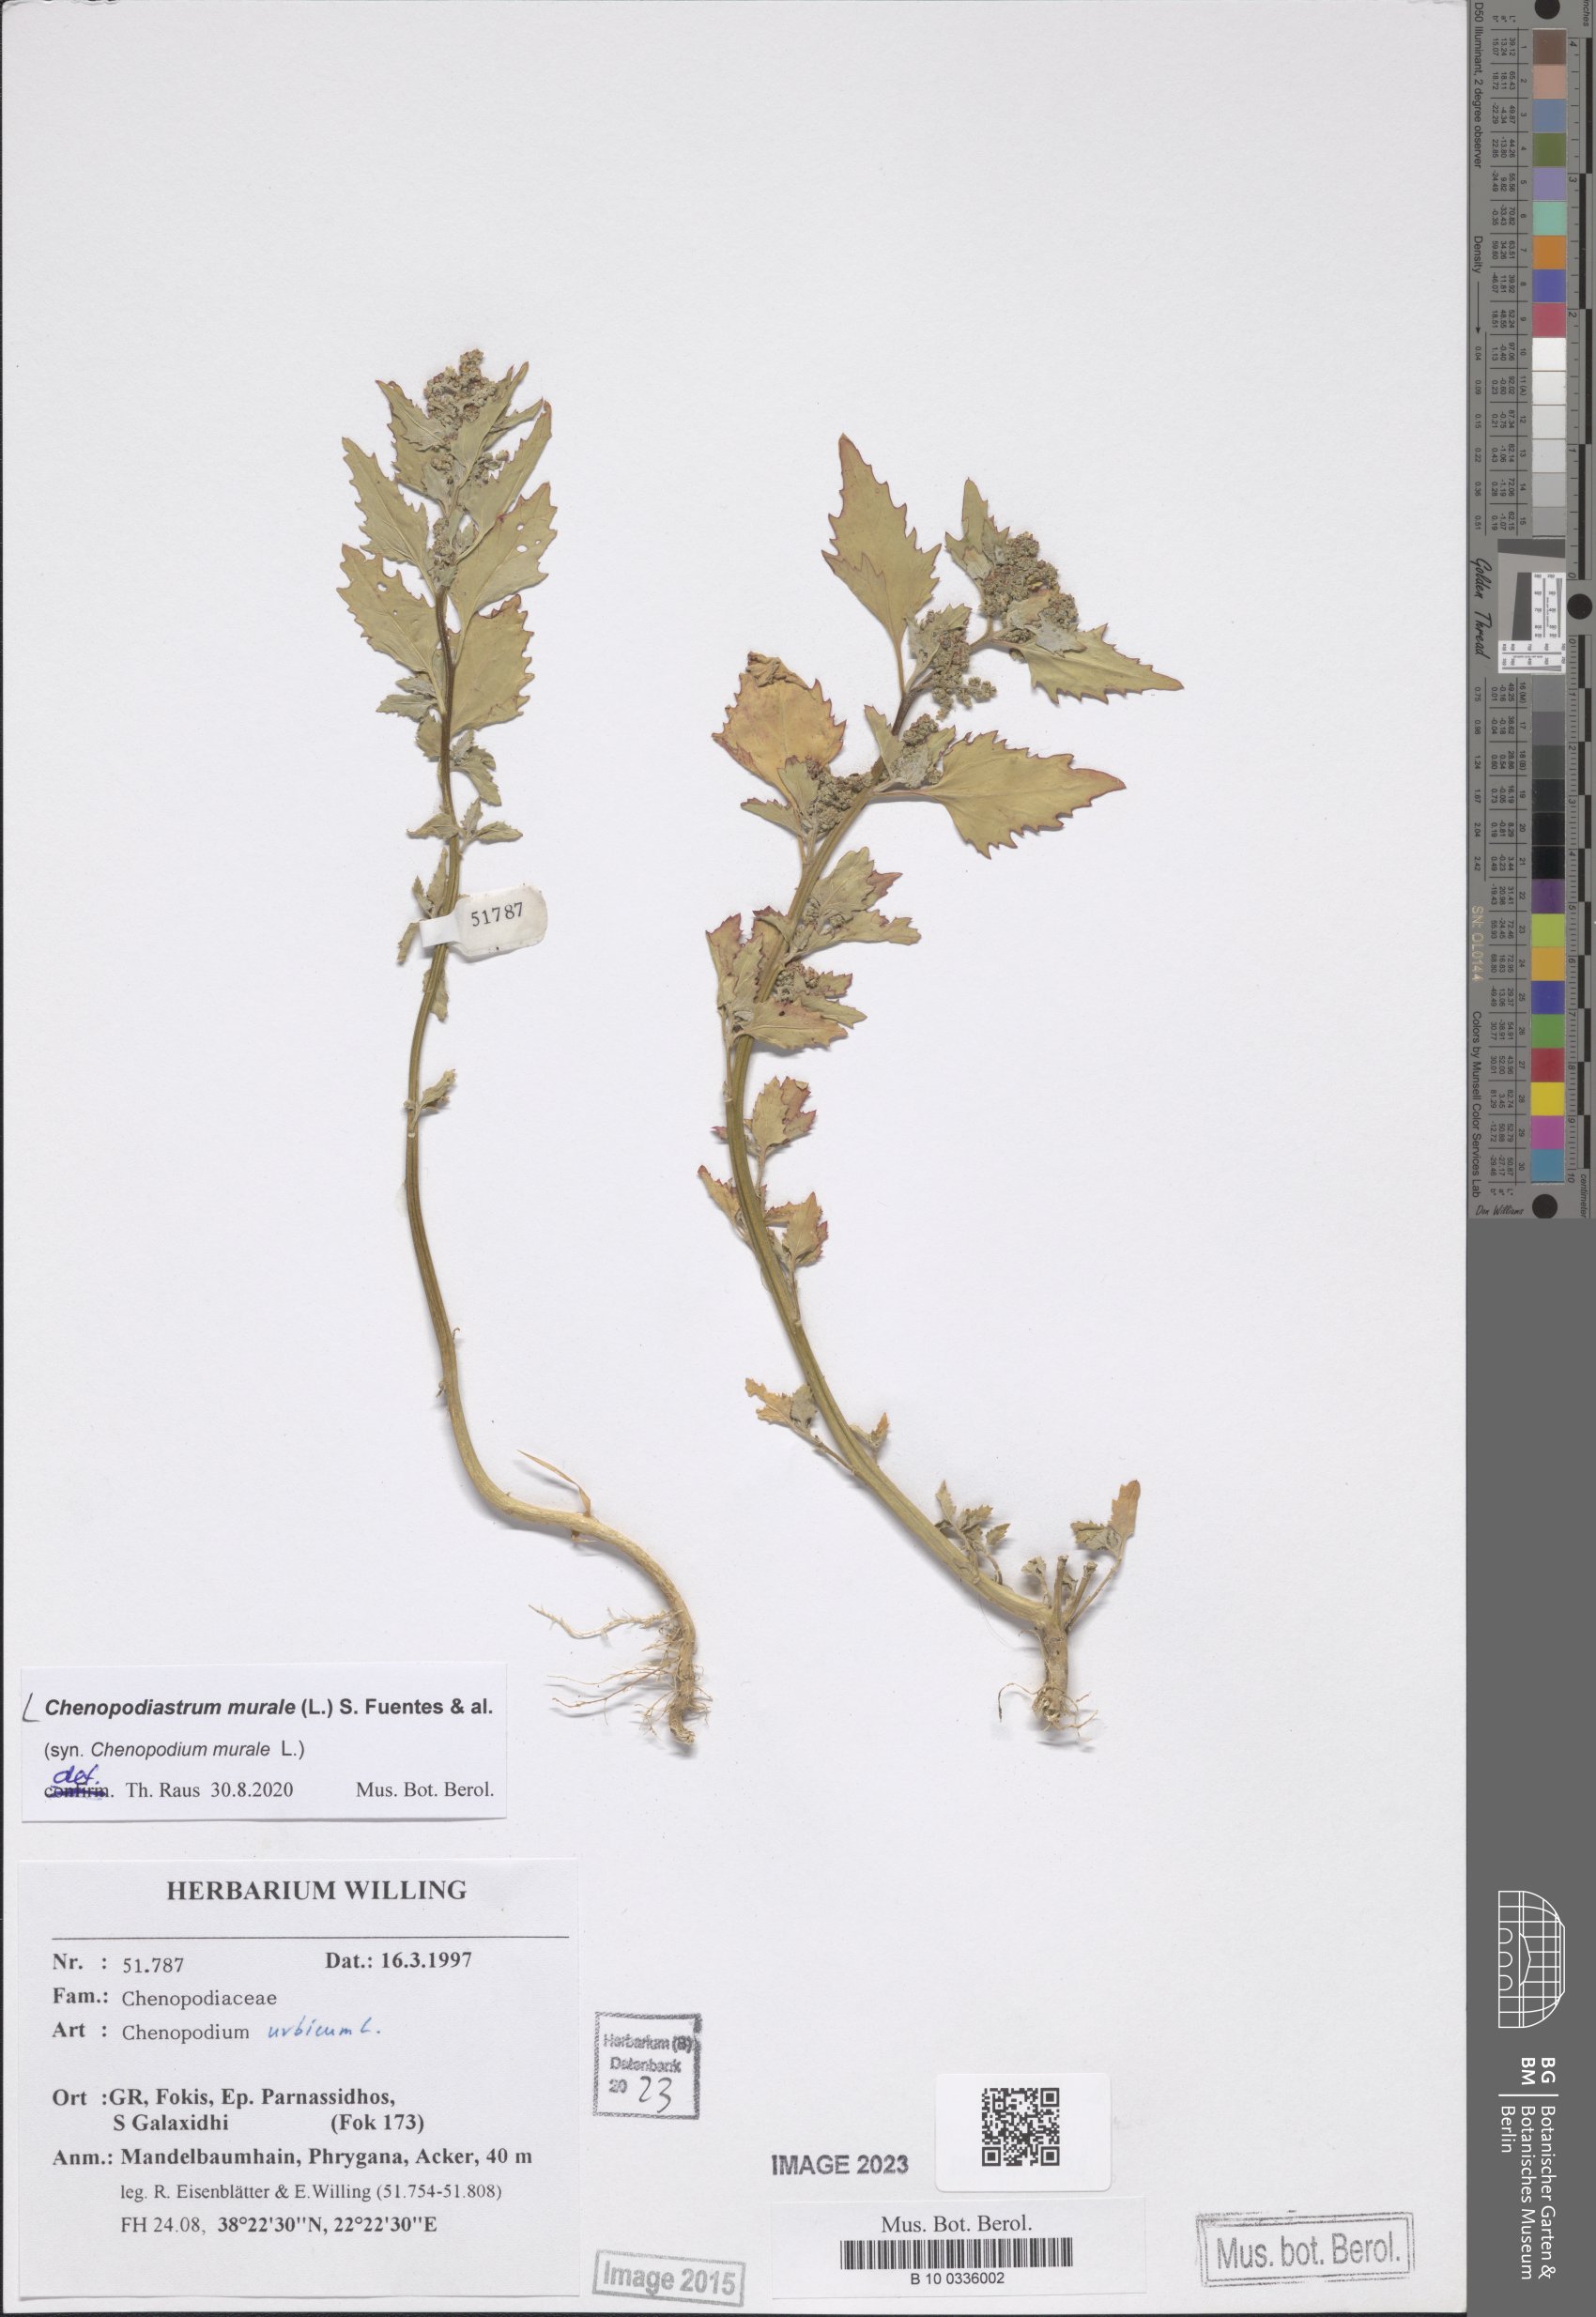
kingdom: Plantae
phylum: Tracheophyta
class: Magnoliopsida
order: Caryophyllales
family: Amaranthaceae
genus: Chenopodiastrum
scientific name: Chenopodiastrum murale
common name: Sowbane
